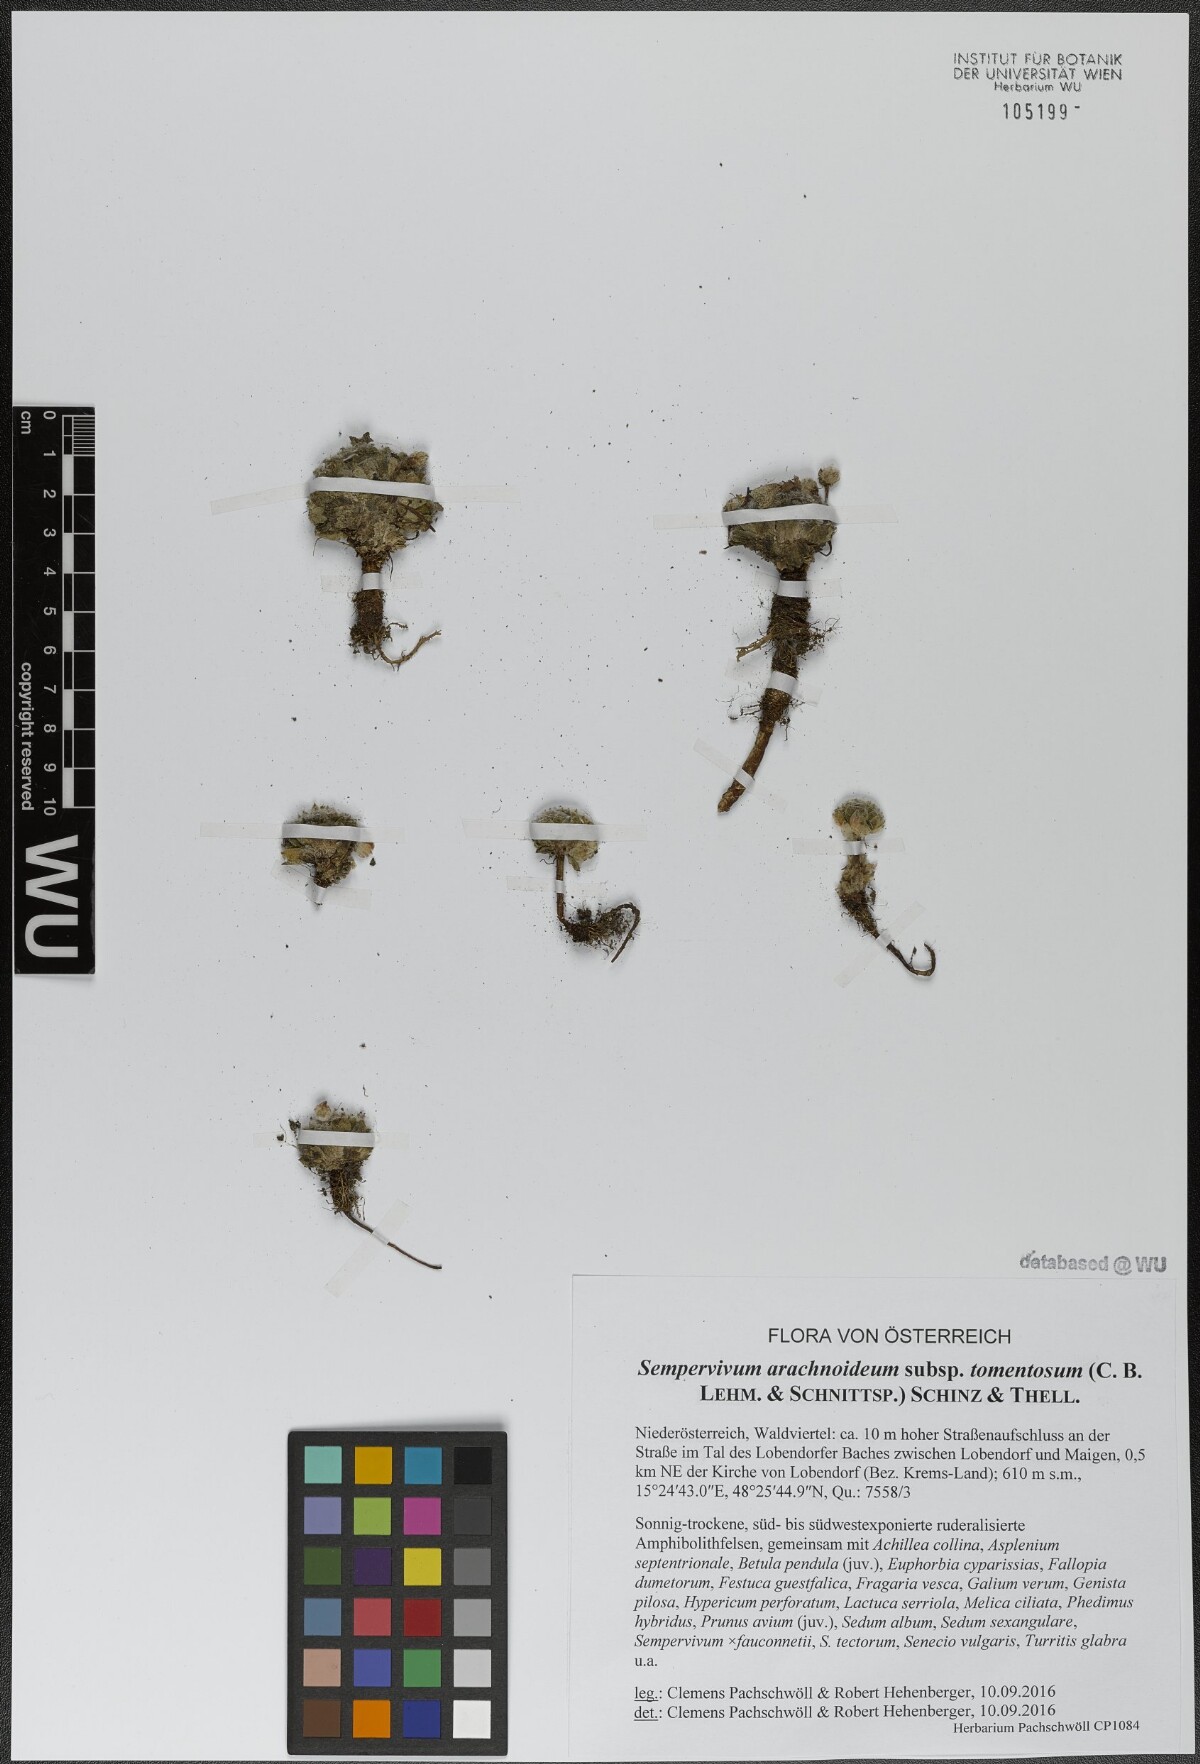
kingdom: Plantae
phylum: Tracheophyta
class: Magnoliopsida
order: Saxifragales
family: Crassulaceae
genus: Sempervivum
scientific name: Sempervivum arachnoideum
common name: Cobweb house-leek
